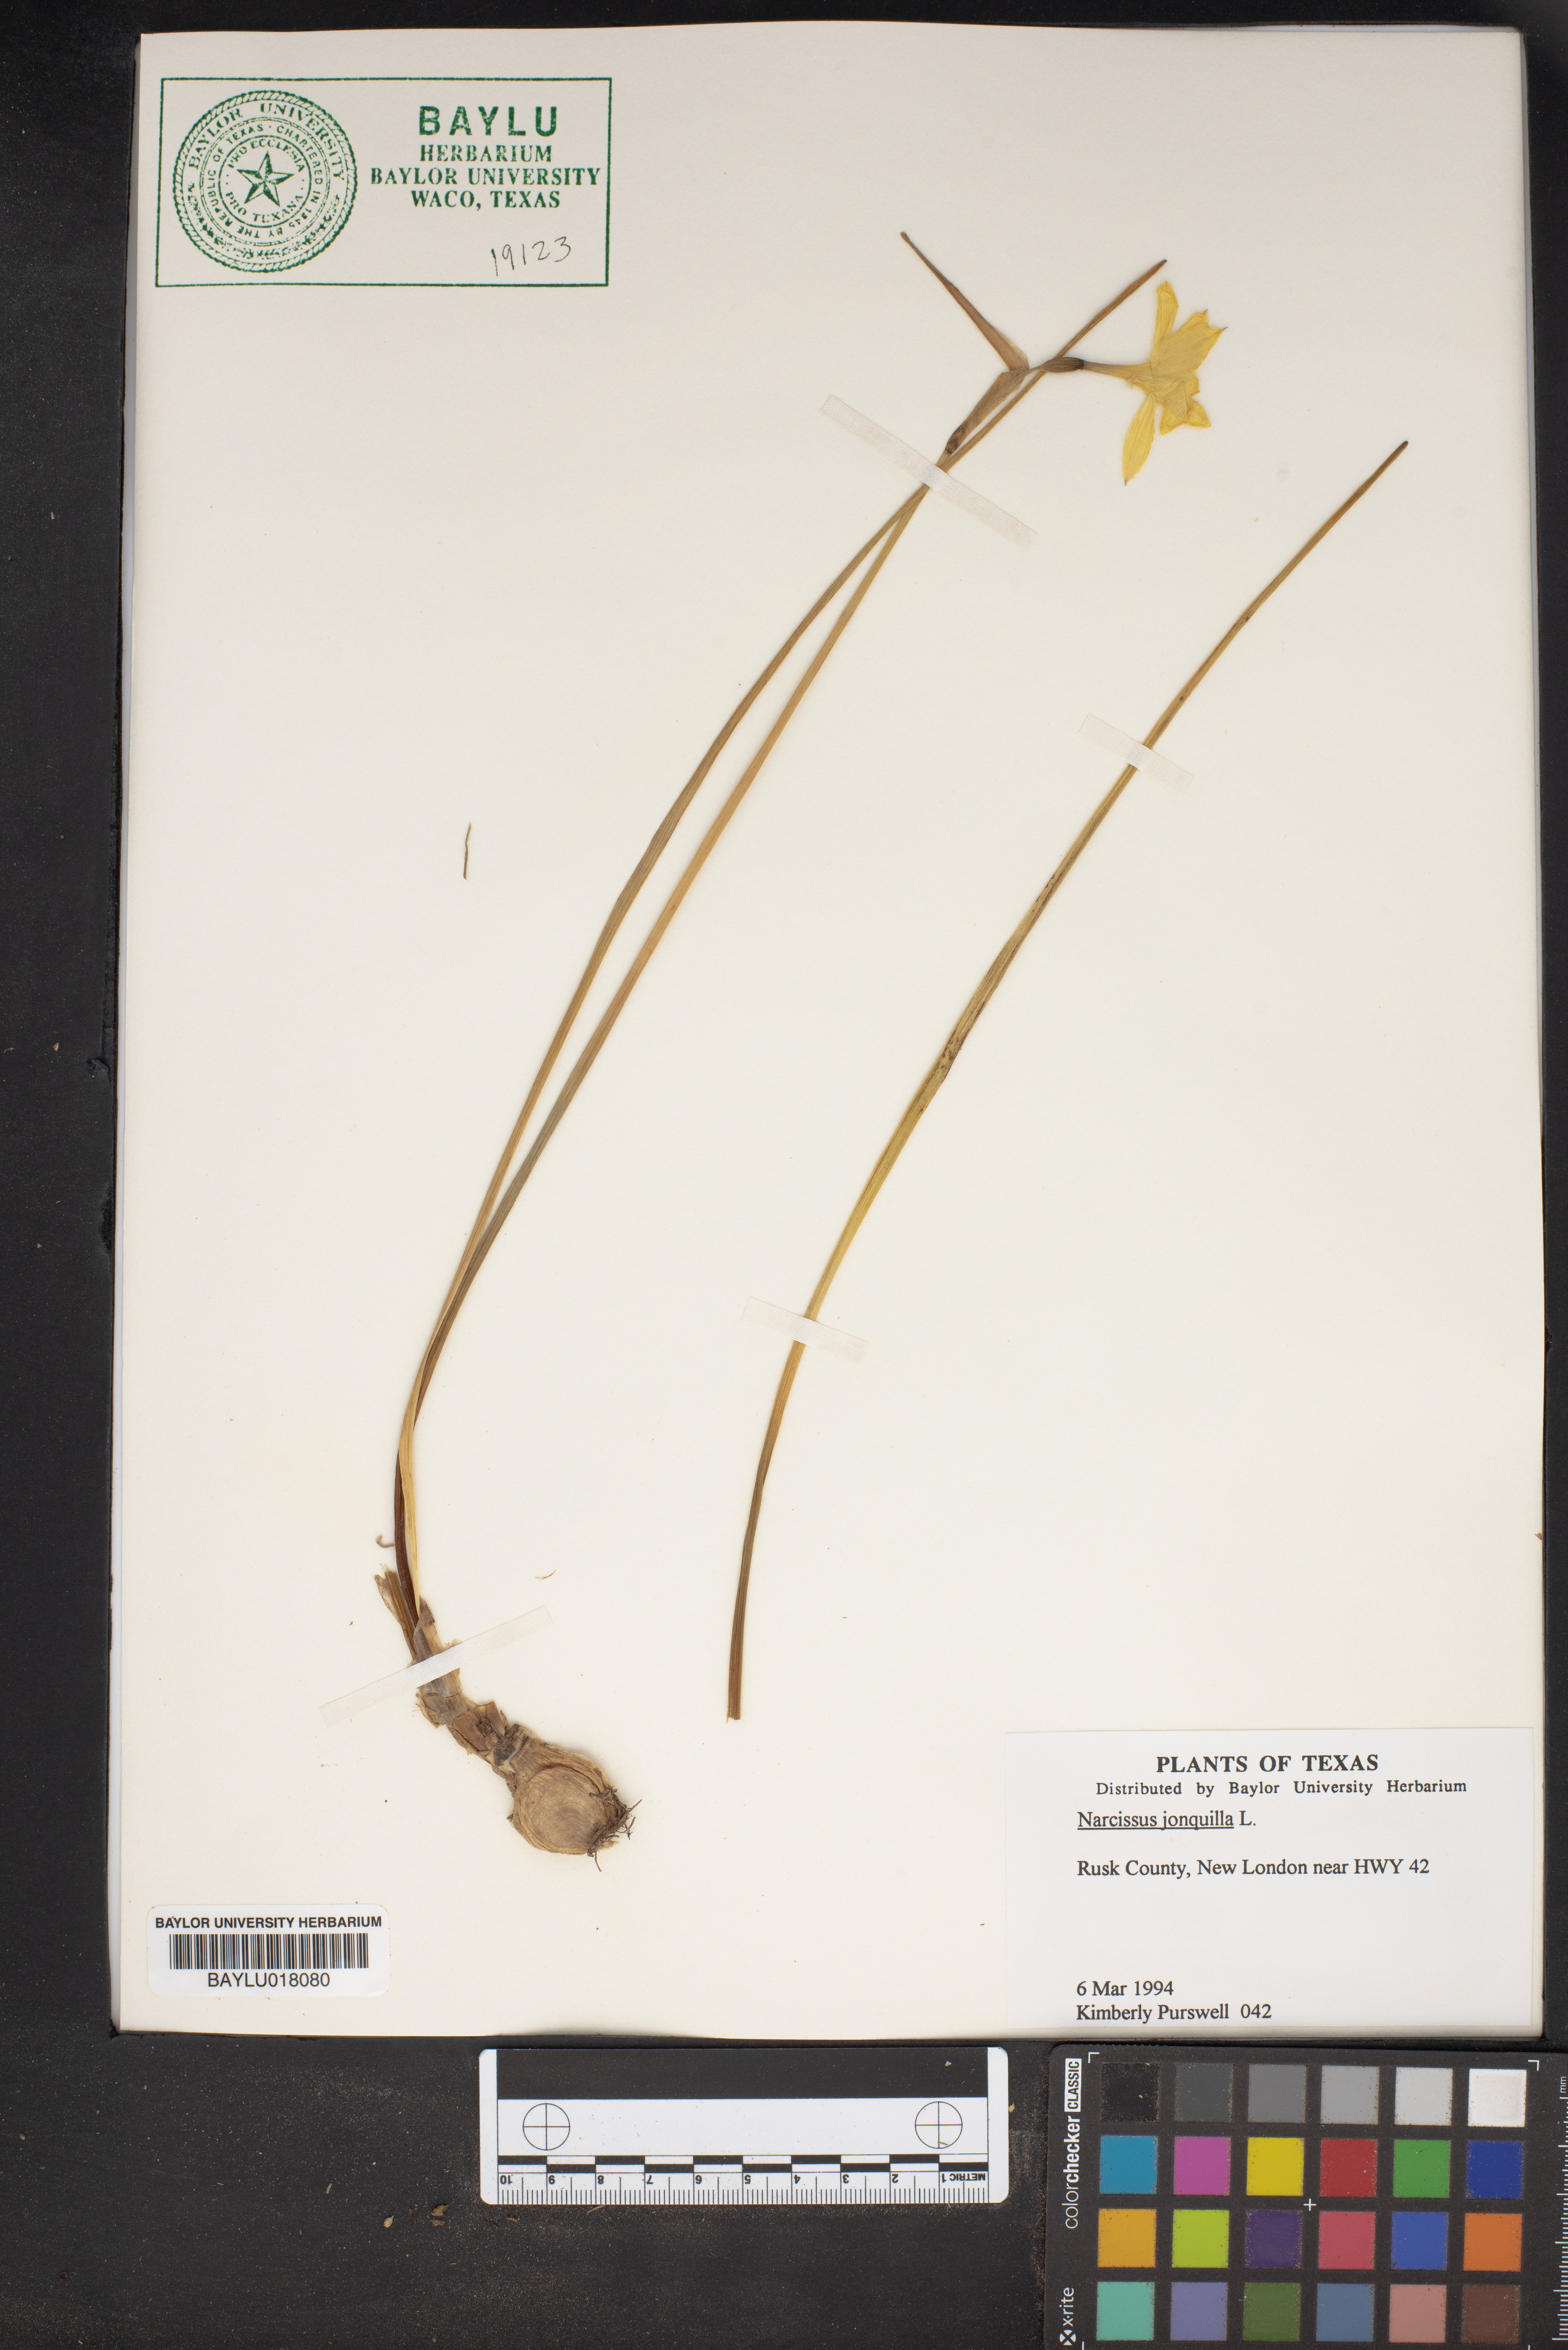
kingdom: Plantae
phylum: Tracheophyta
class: Liliopsida
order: Asparagales
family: Amaryllidaceae
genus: Narcissus
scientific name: Narcissus jonquilla
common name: Jonquil
